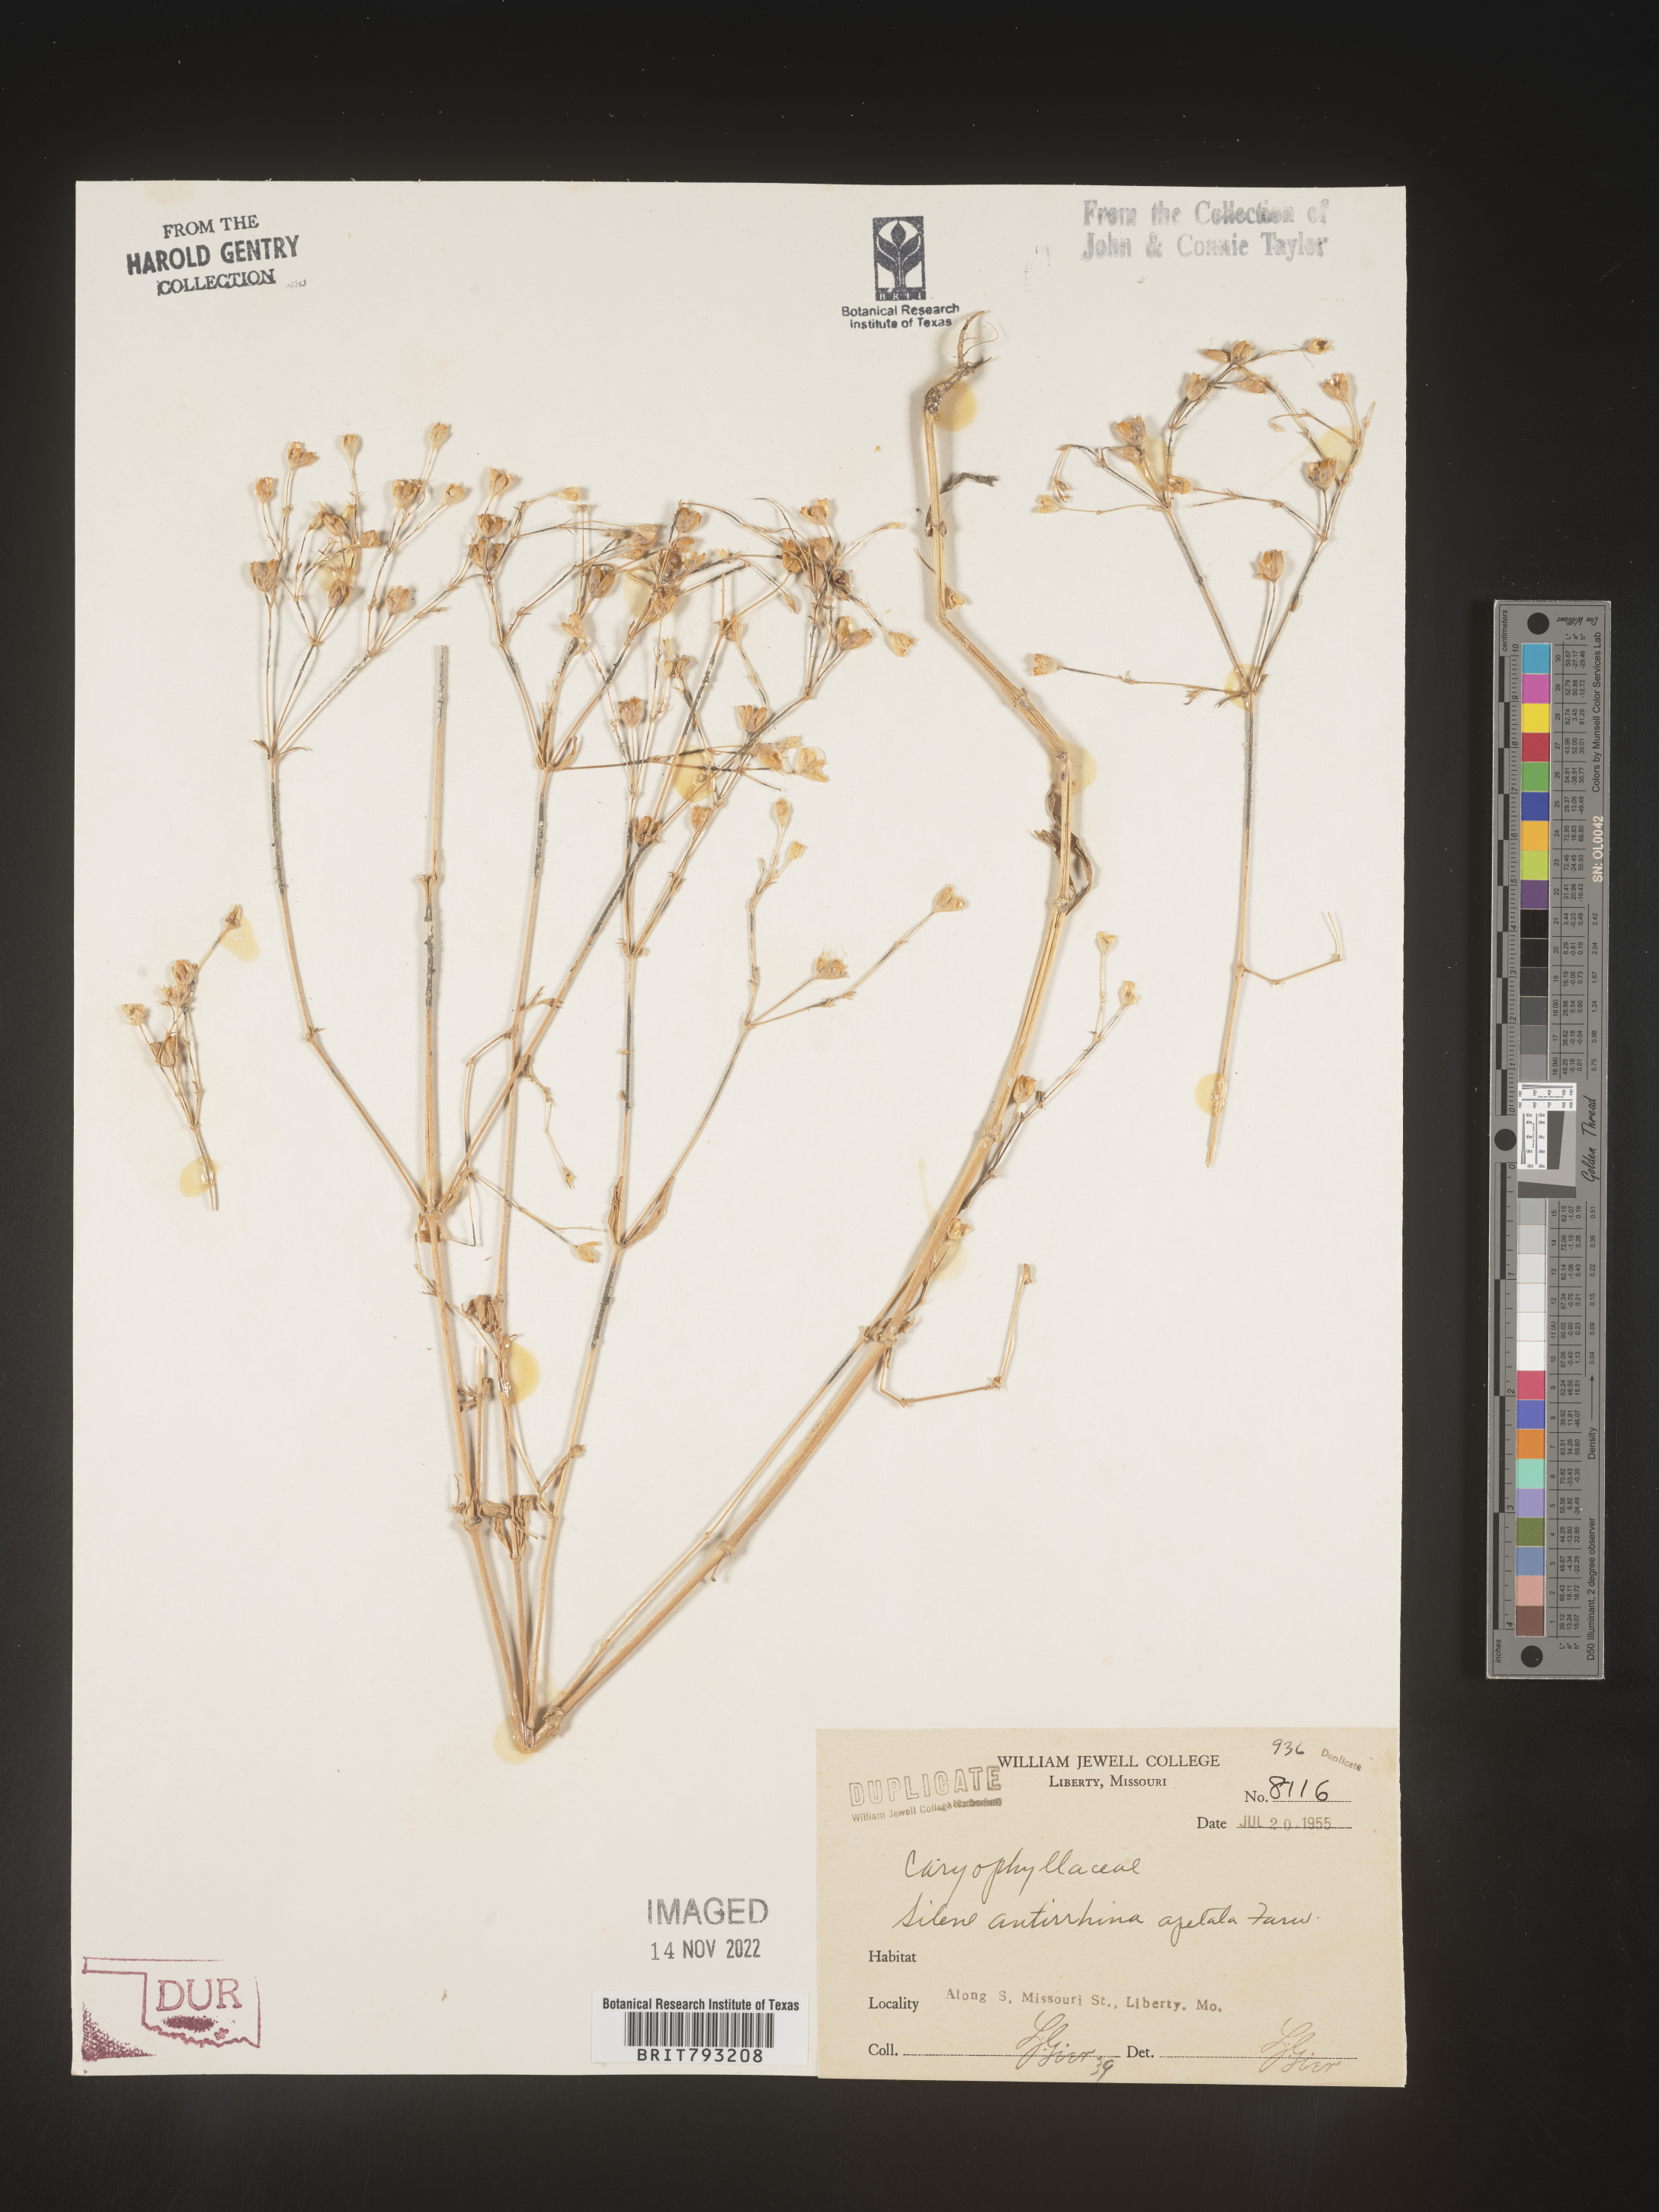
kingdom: Plantae
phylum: Tracheophyta
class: Magnoliopsida
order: Caryophyllales
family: Caryophyllaceae
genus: Silene
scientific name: Silene antirrhina
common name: Sleepy catchfly
